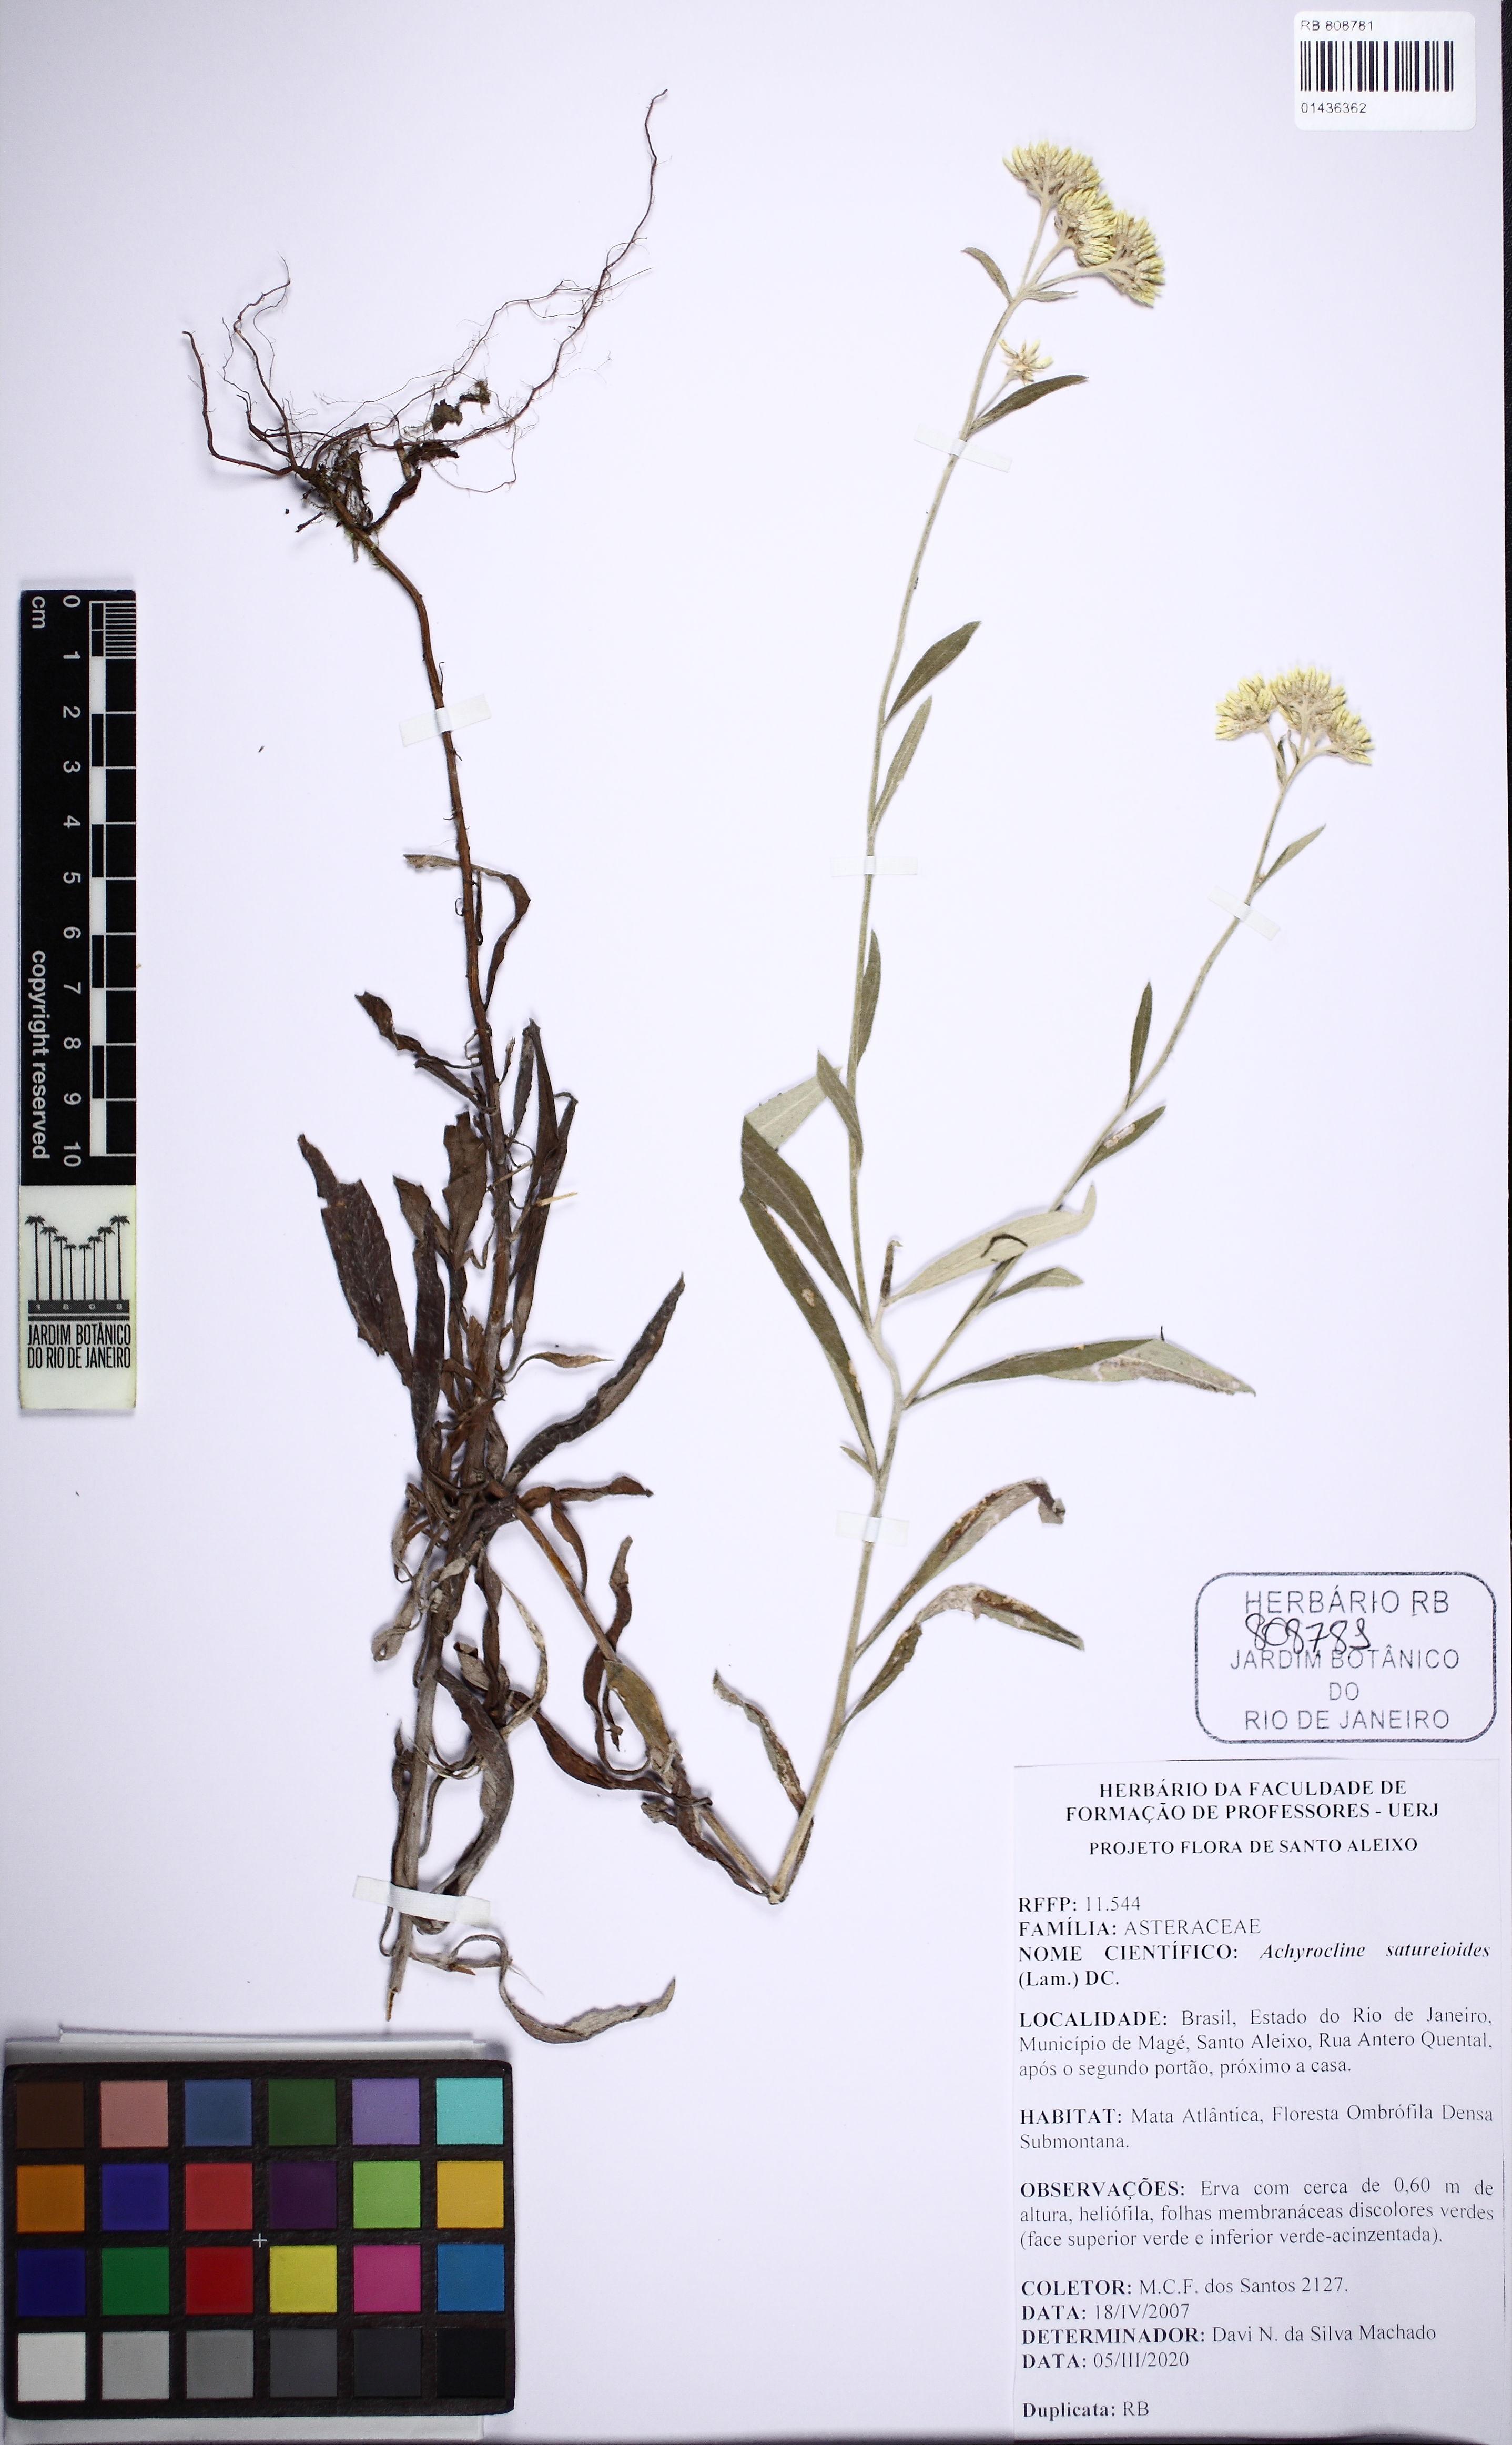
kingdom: Plantae
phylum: Tracheophyta
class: Magnoliopsida
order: Asterales
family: Asteraceae
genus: Achyrocline
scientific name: Achyrocline satureioides
